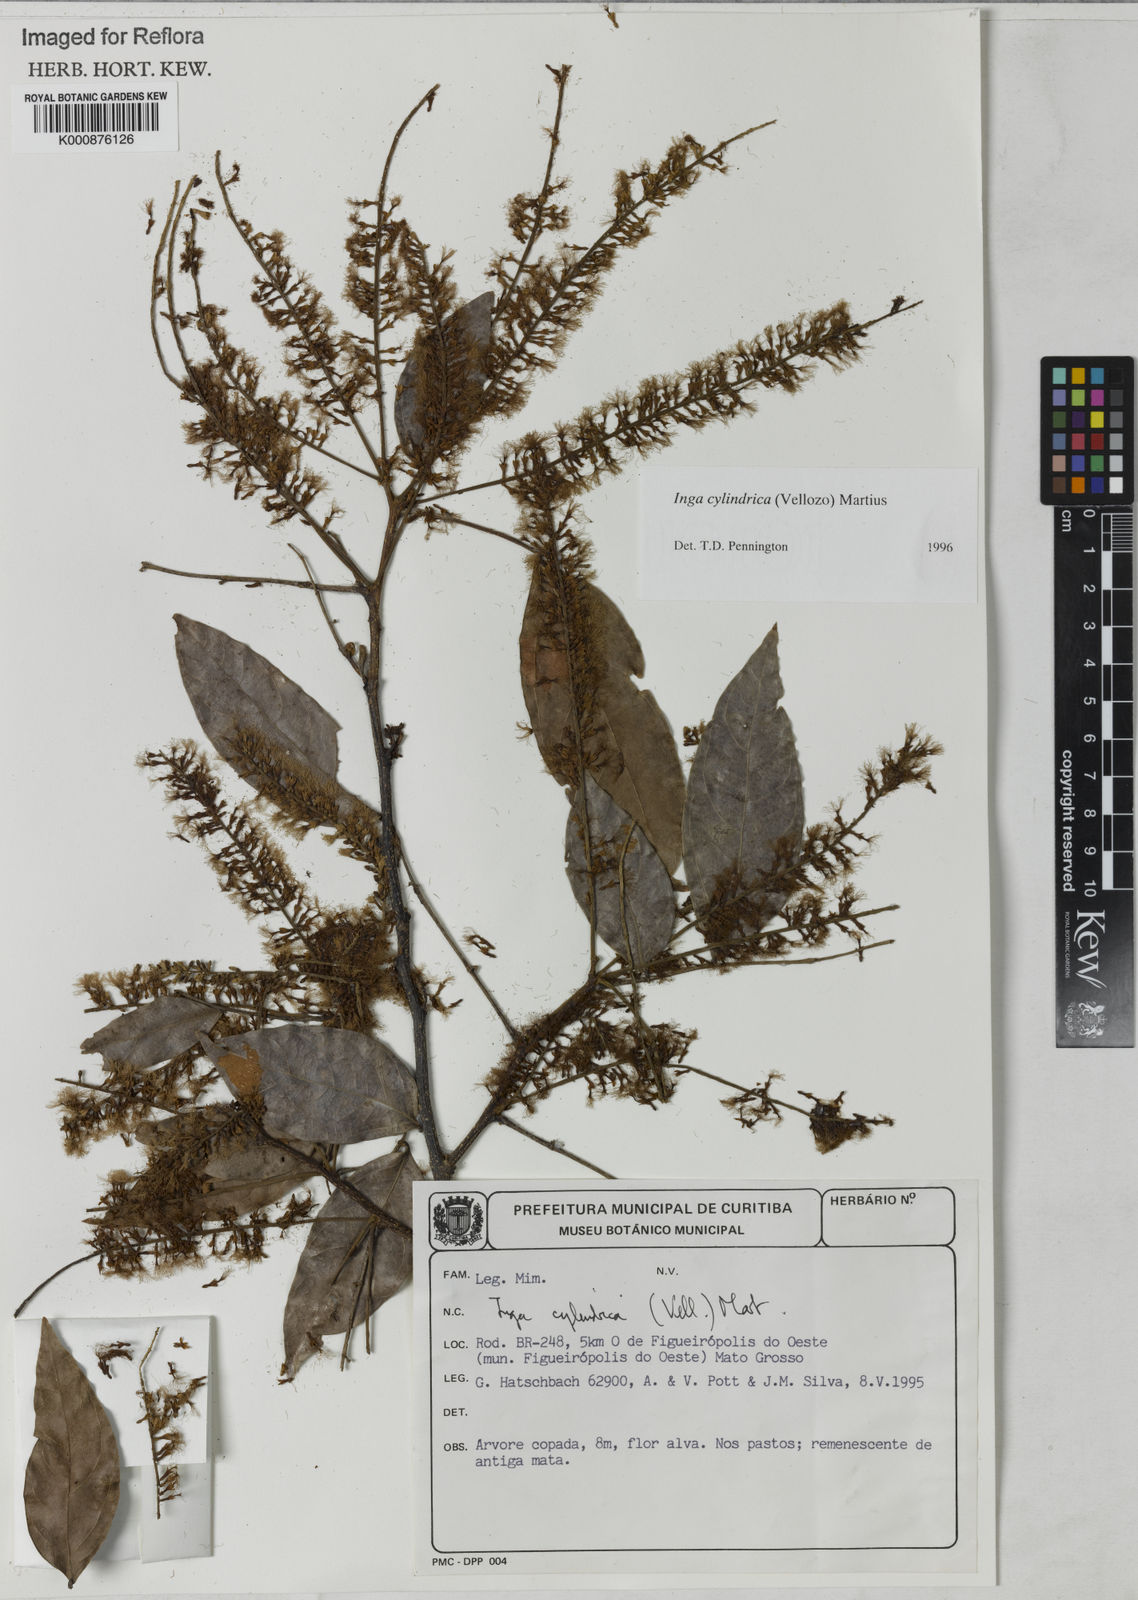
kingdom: Plantae
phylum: Tracheophyta
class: Magnoliopsida
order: Fabales
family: Fabaceae
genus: Inga
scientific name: Inga cylindrica
